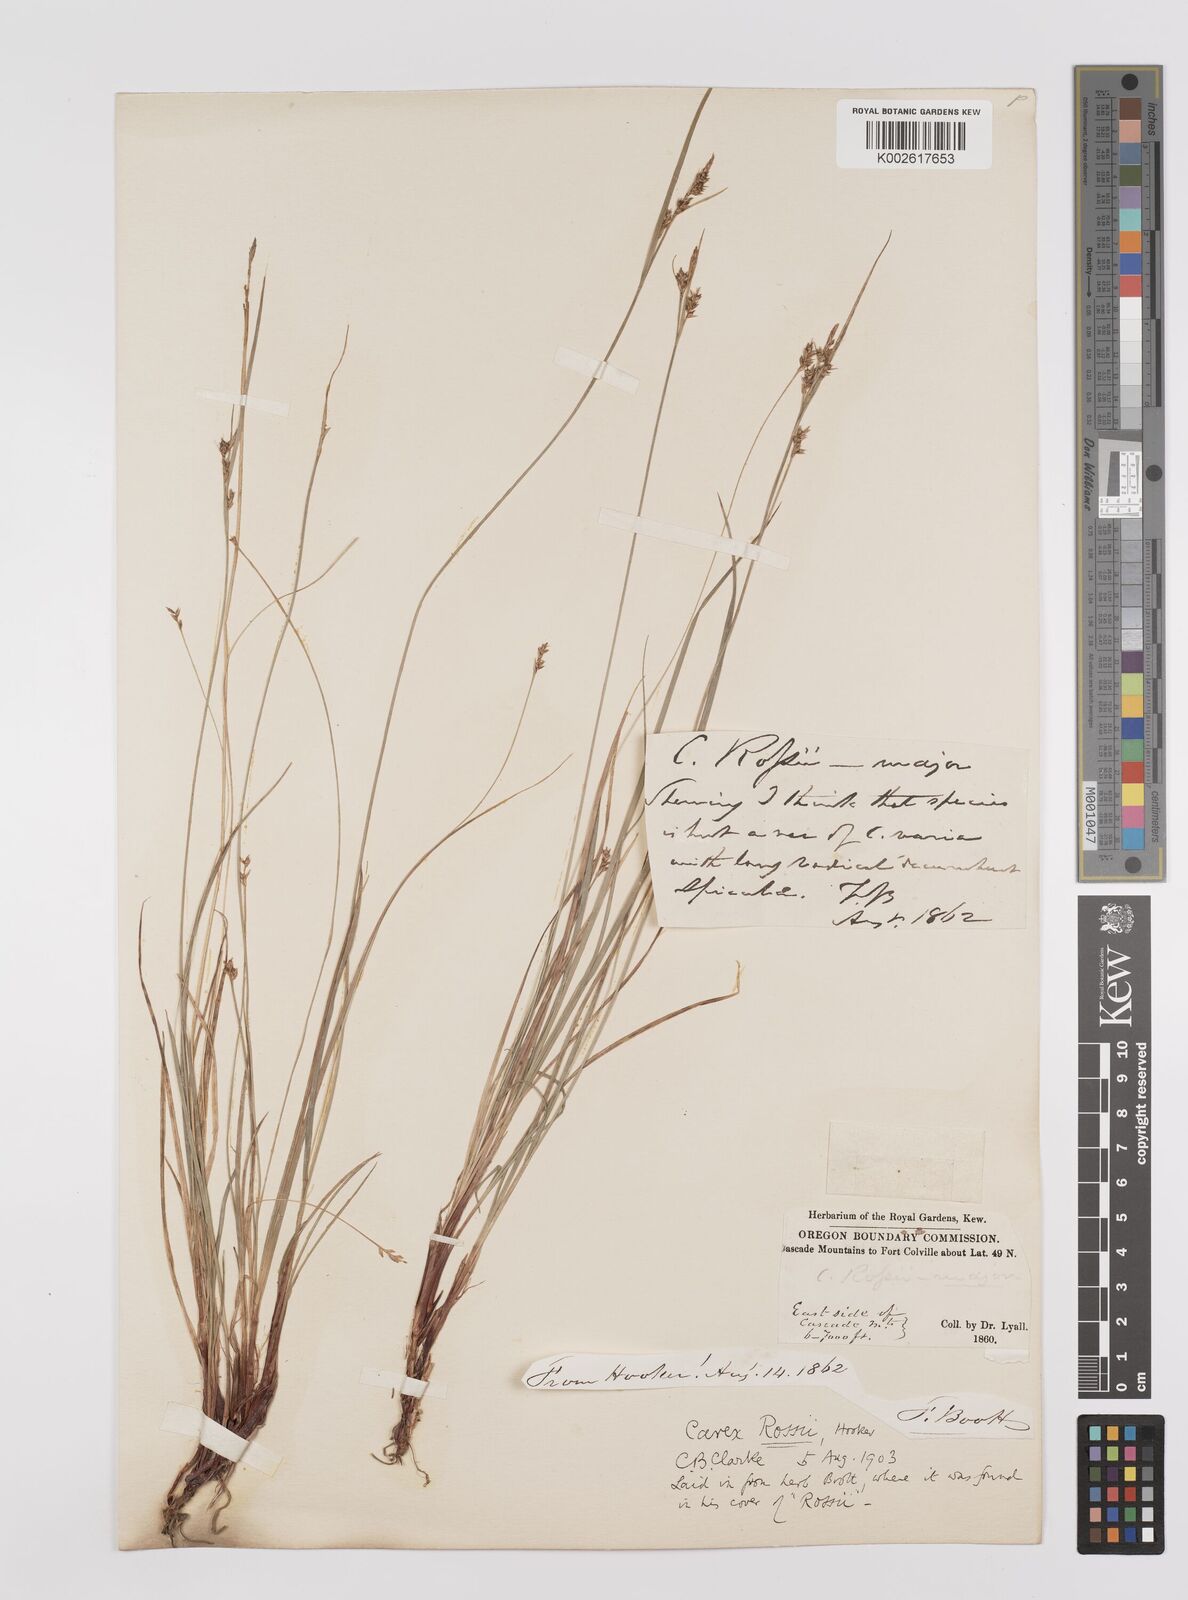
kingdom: Plantae
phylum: Tracheophyta
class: Liliopsida
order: Poales
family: Cyperaceae
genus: Carex
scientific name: Carex rossii
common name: Ross' sedge
